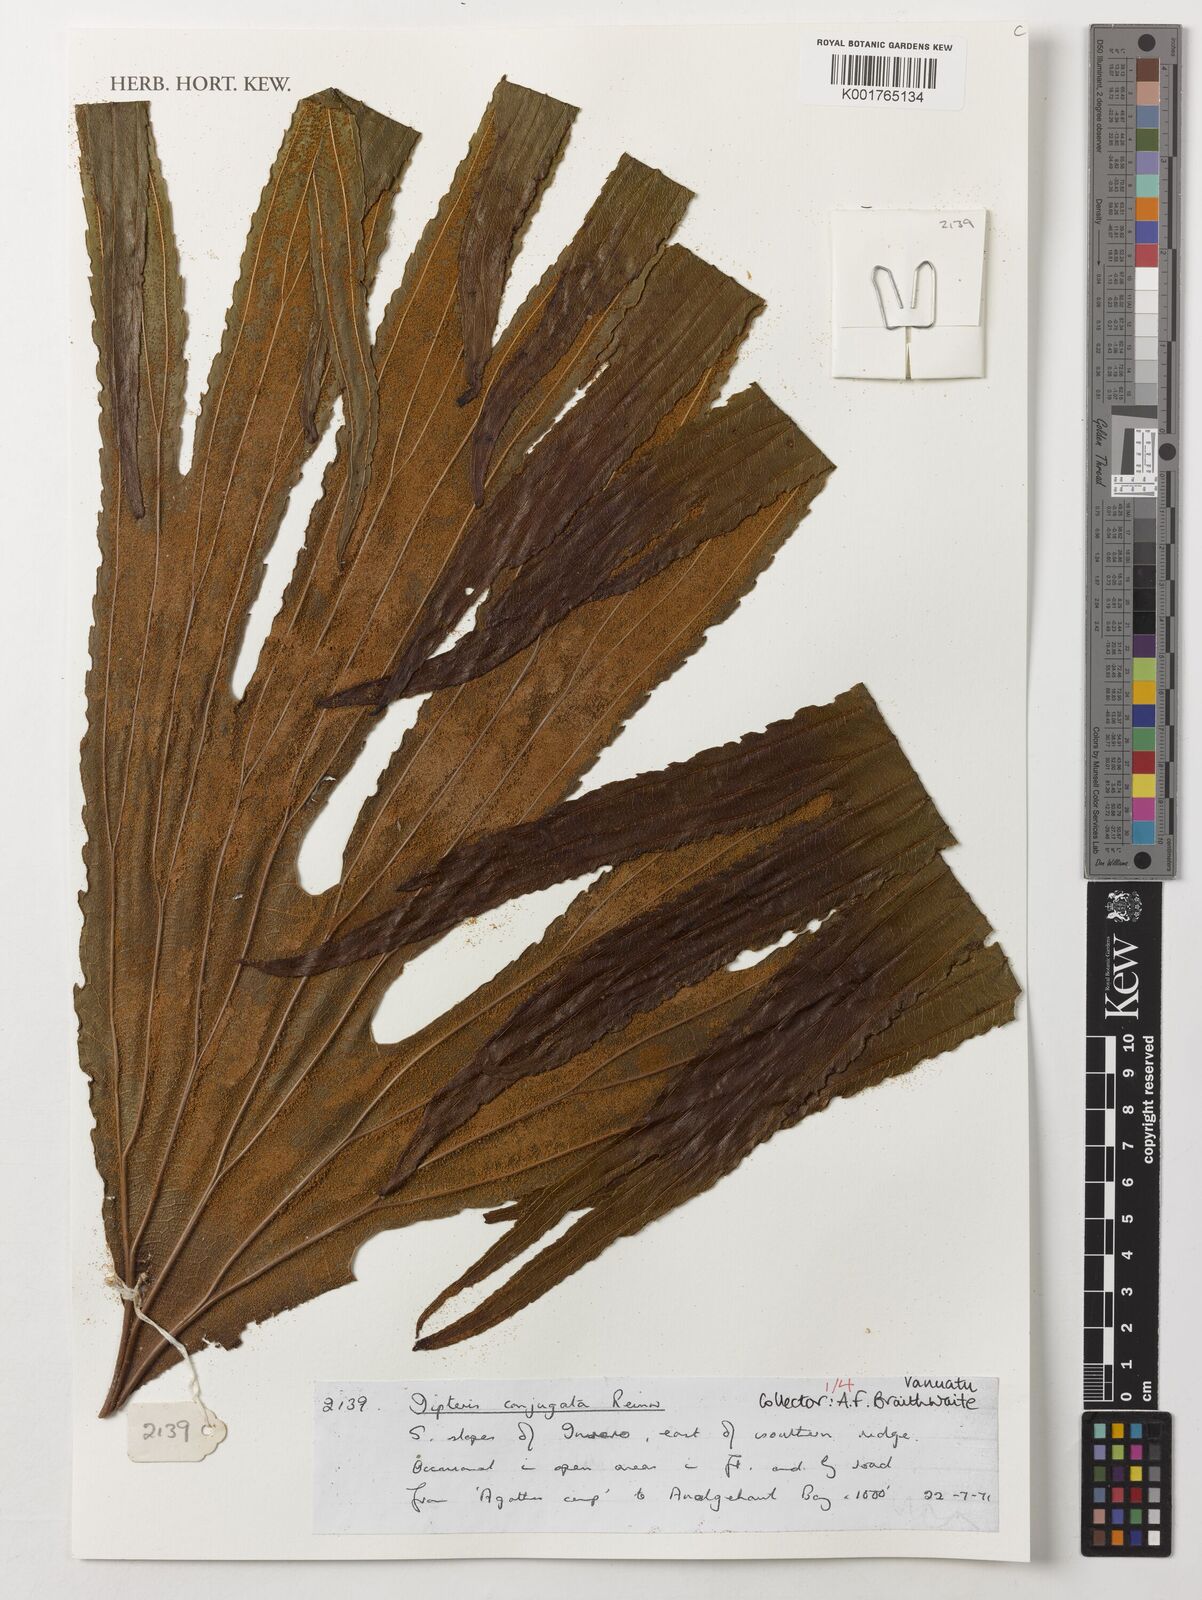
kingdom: Plantae
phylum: Tracheophyta
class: Polypodiopsida
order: Gleicheniales
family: Dipteridaceae
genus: Dipteris
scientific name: Dipteris conjugata
